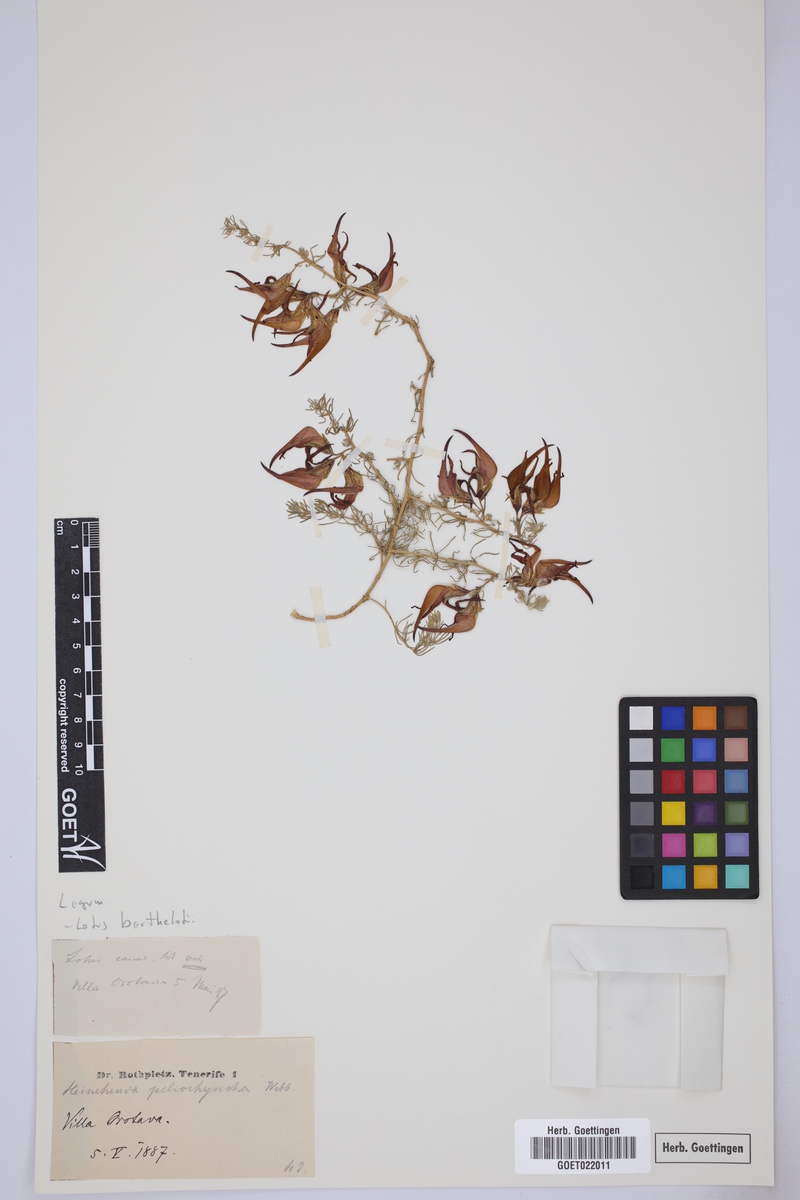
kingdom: Plantae
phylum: Tracheophyta
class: Magnoliopsida
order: Fabales
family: Fabaceae
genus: Lotus
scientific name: Lotus berthelotii
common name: Coralgem
